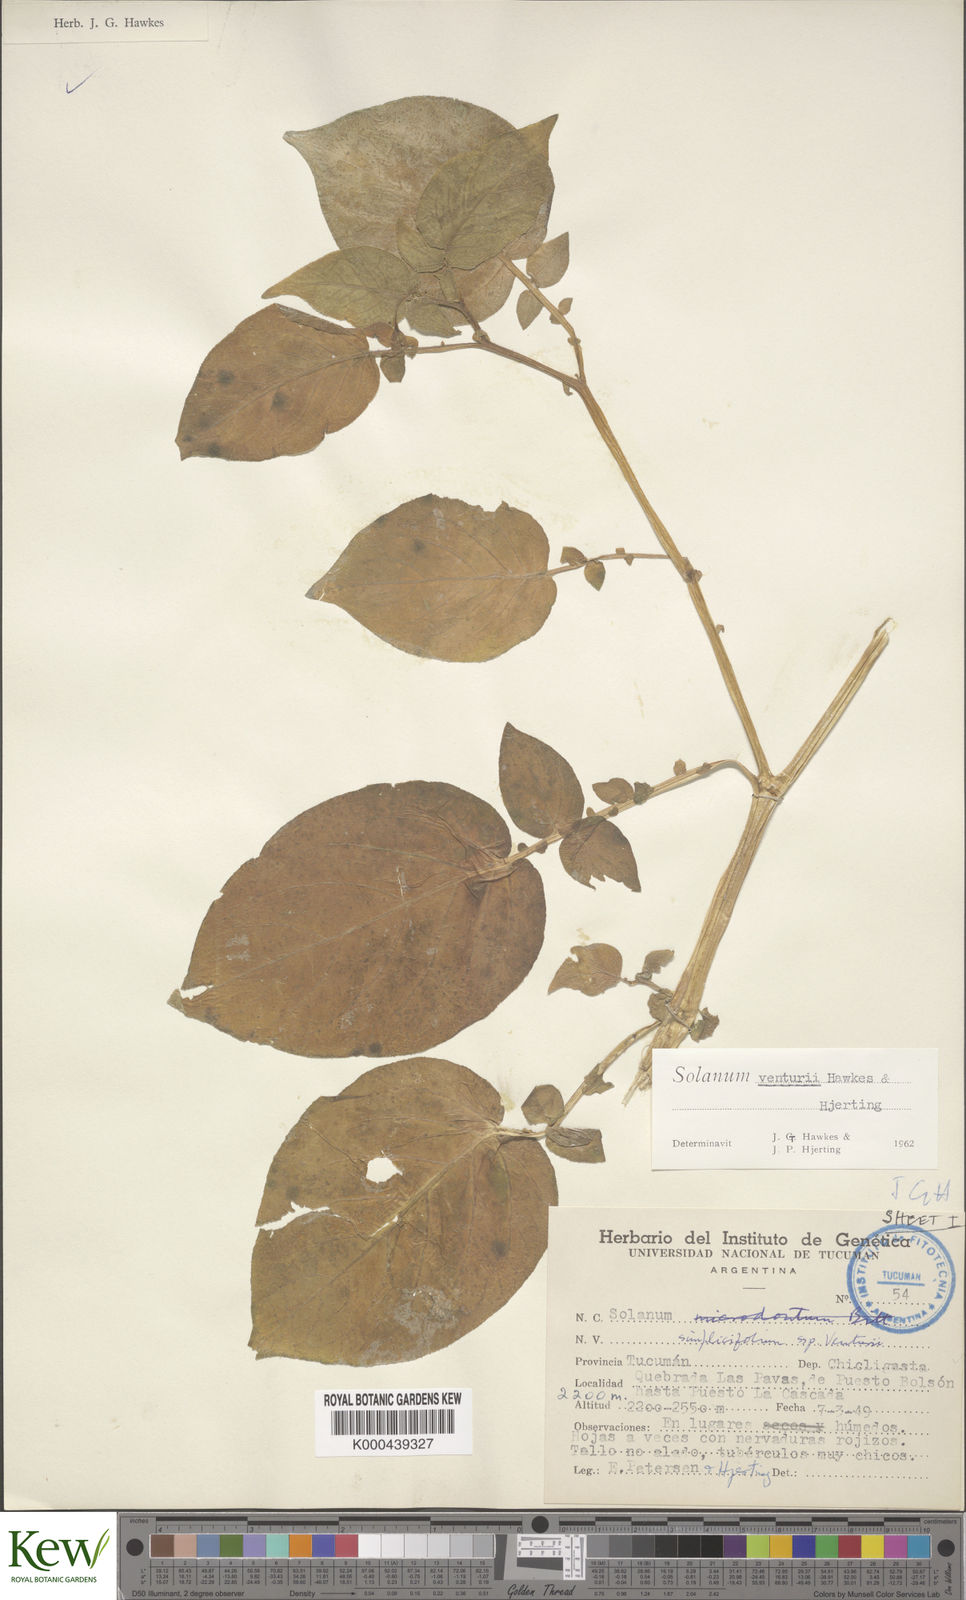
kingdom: Plantae
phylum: Tracheophyta
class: Magnoliopsida
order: Solanales
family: Solanaceae
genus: Solanum
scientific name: Solanum venturii
